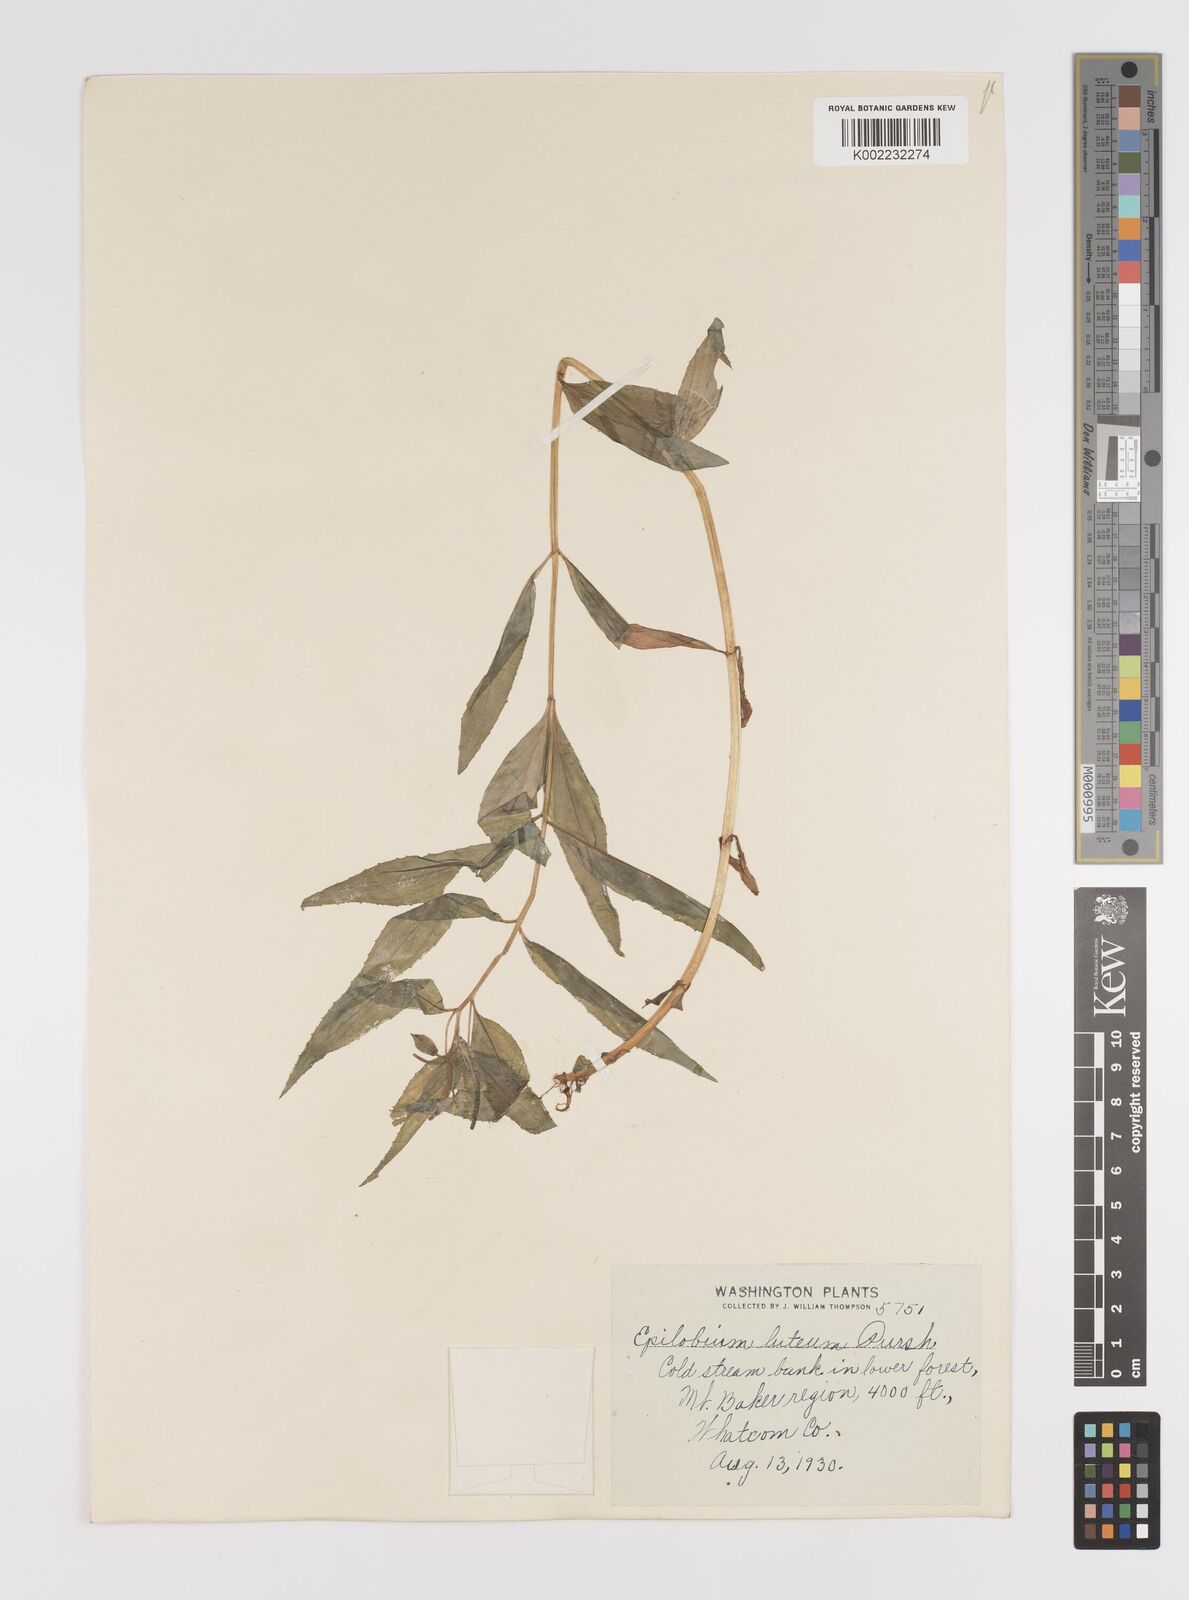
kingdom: Plantae
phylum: Tracheophyta
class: Magnoliopsida
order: Myrtales
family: Onagraceae
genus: Epilobium
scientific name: Epilobium luteum
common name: Yellow willowherb
